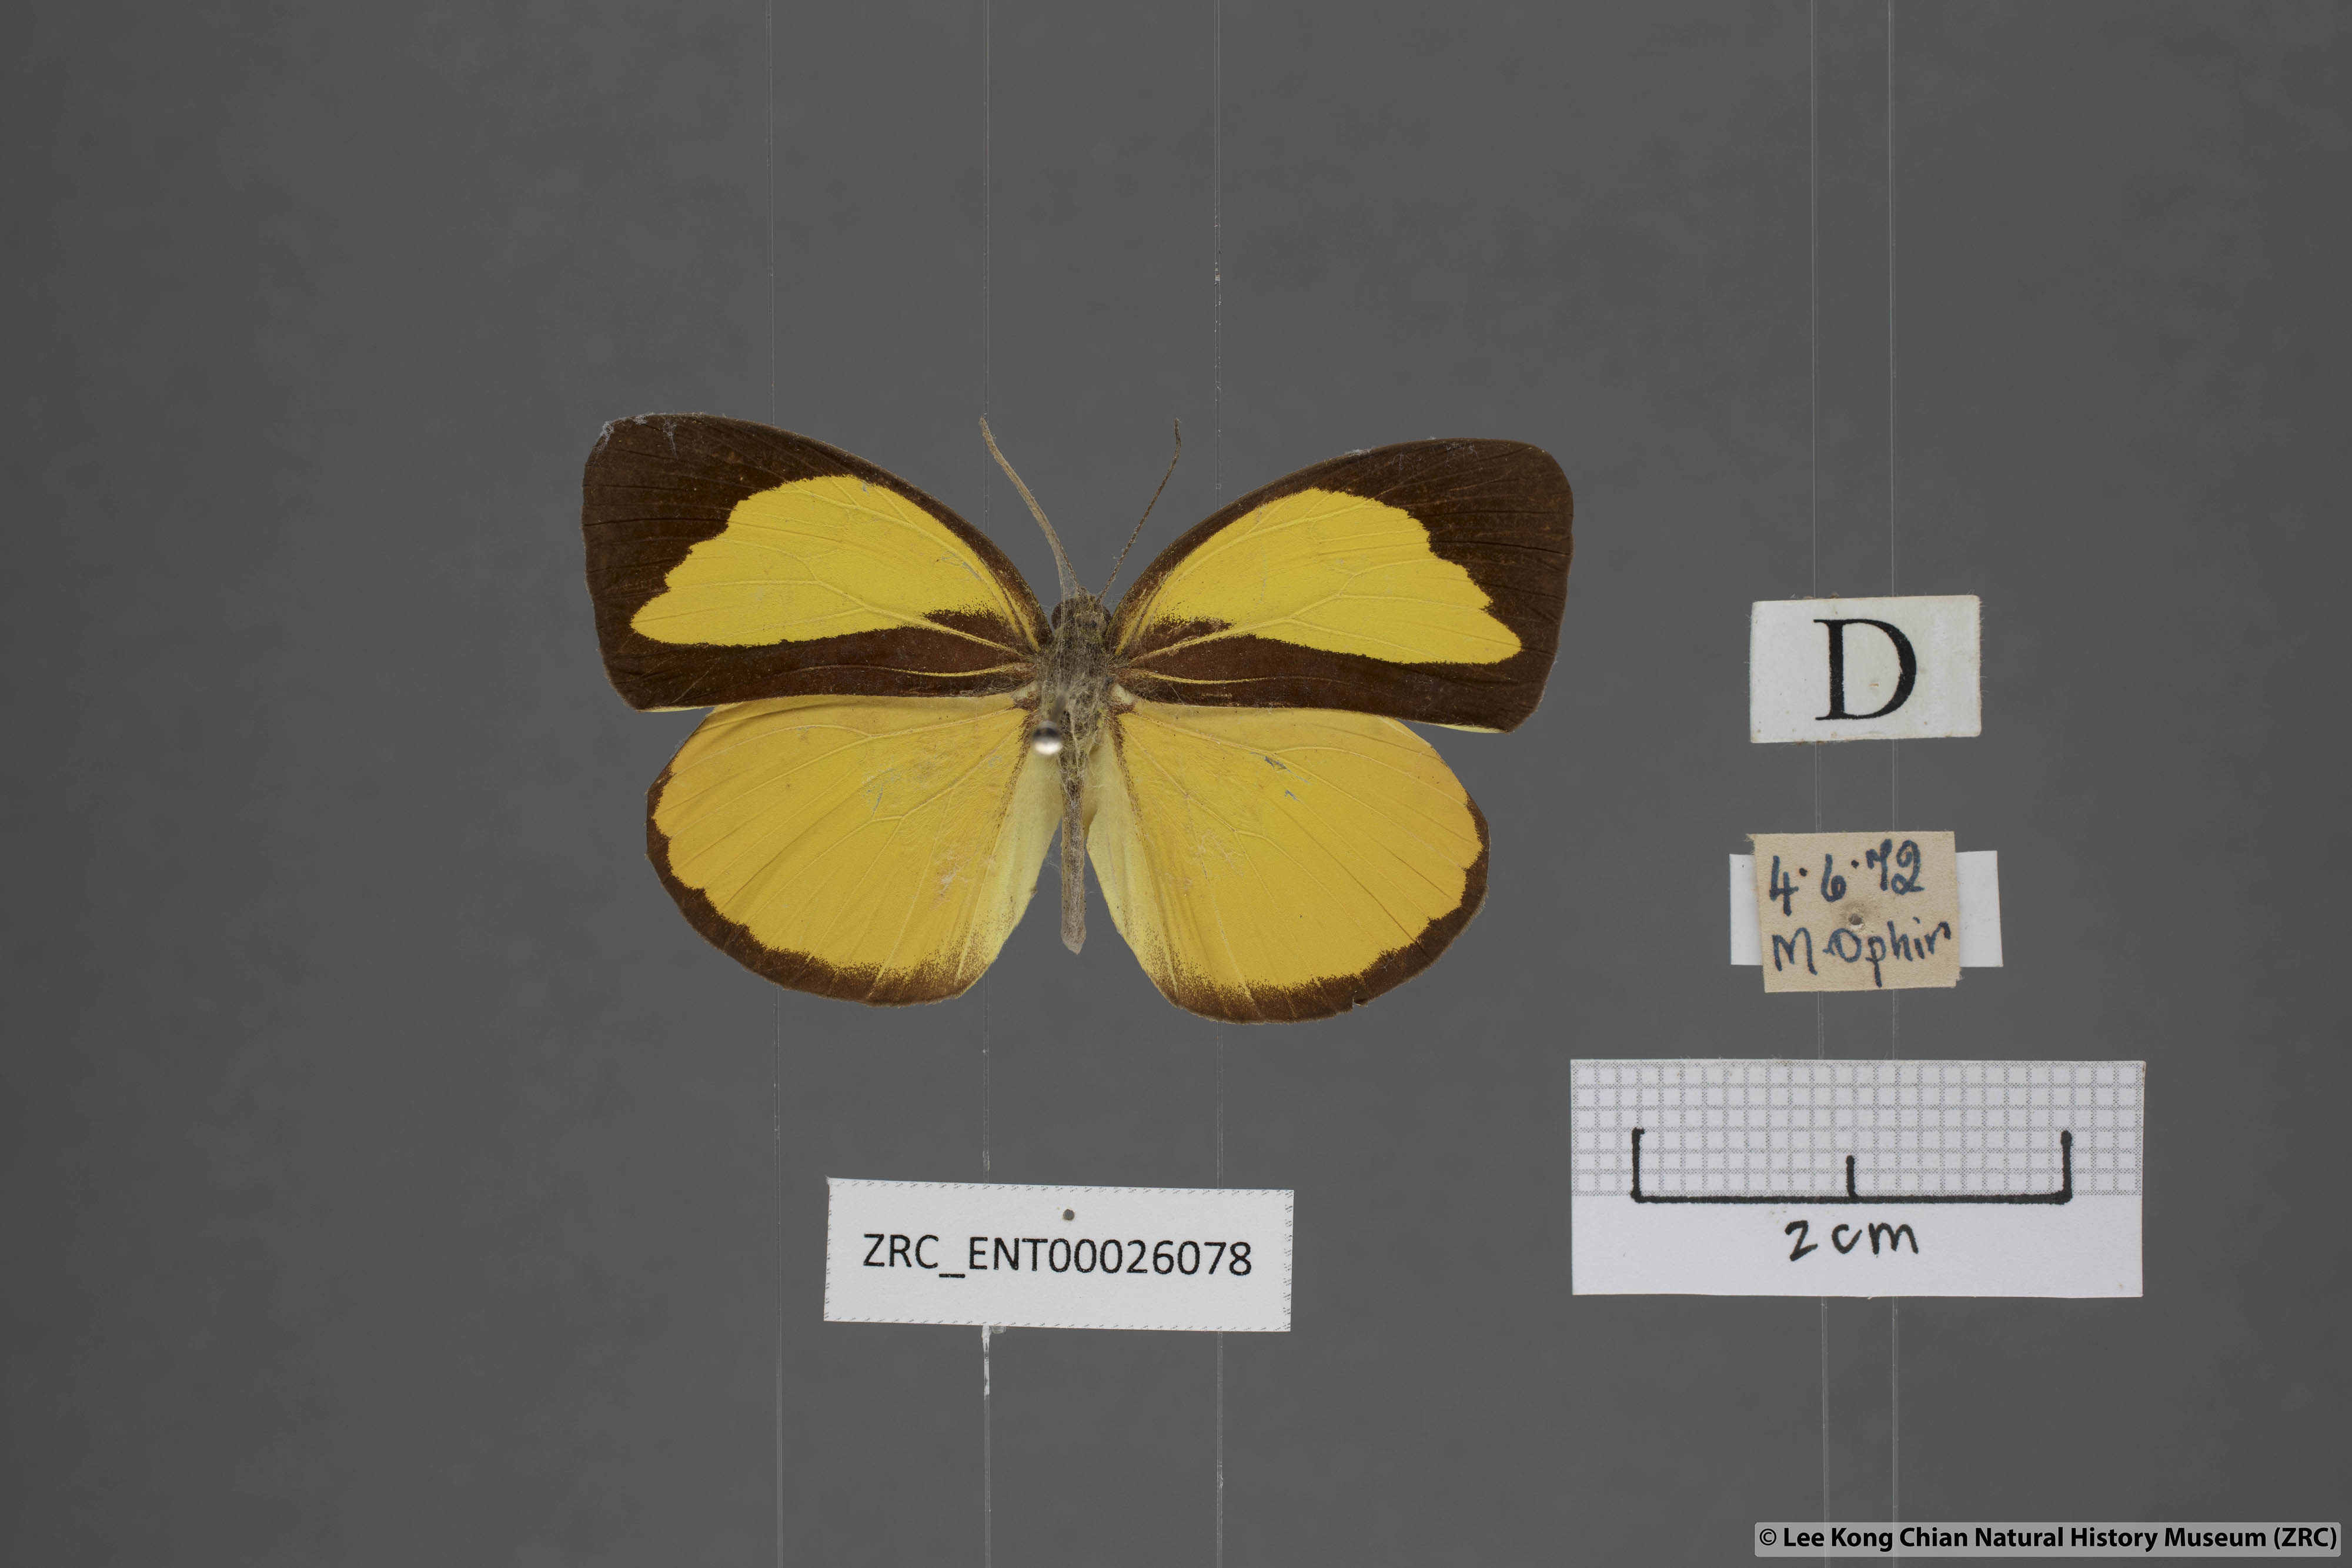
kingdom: Animalia
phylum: Arthropoda
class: Insecta
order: Lepidoptera
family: Pieridae
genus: Eurema
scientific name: Eurema nicevillei
